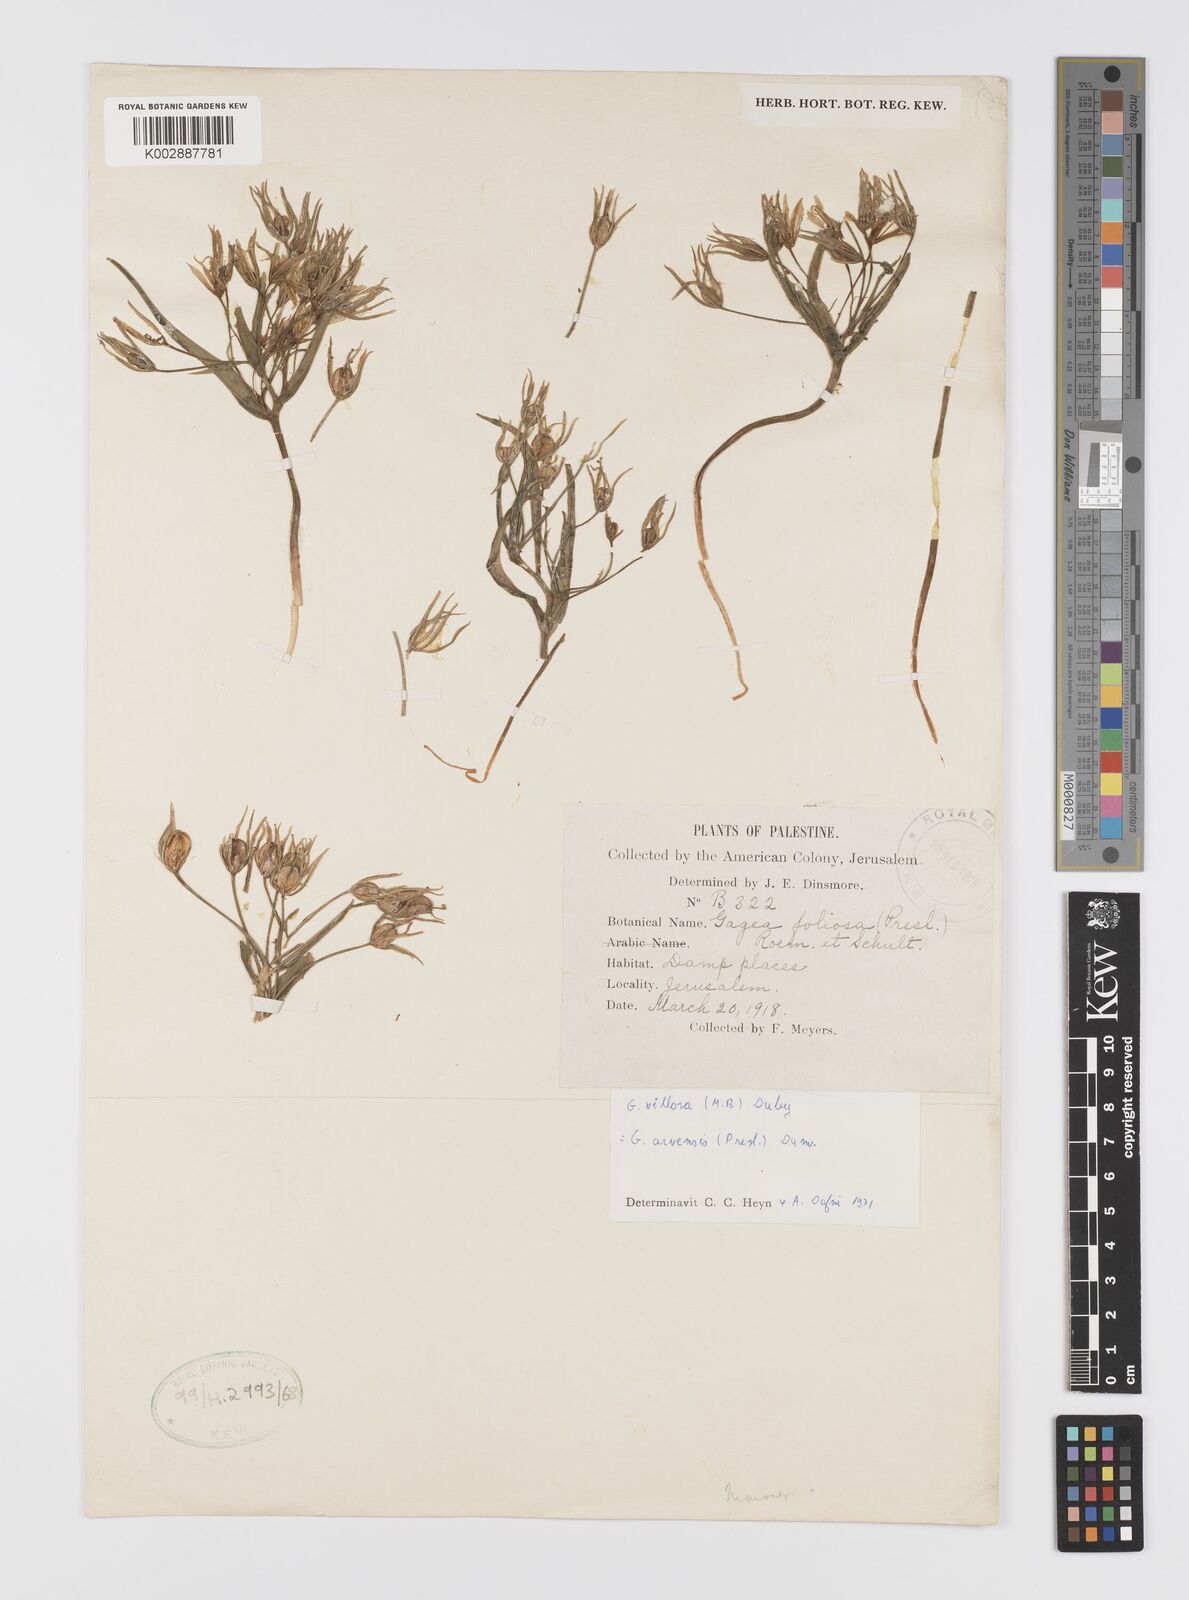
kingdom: Plantae
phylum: Tracheophyta
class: Liliopsida
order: Liliales
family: Liliaceae
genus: Gagea
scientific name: Gagea minima
